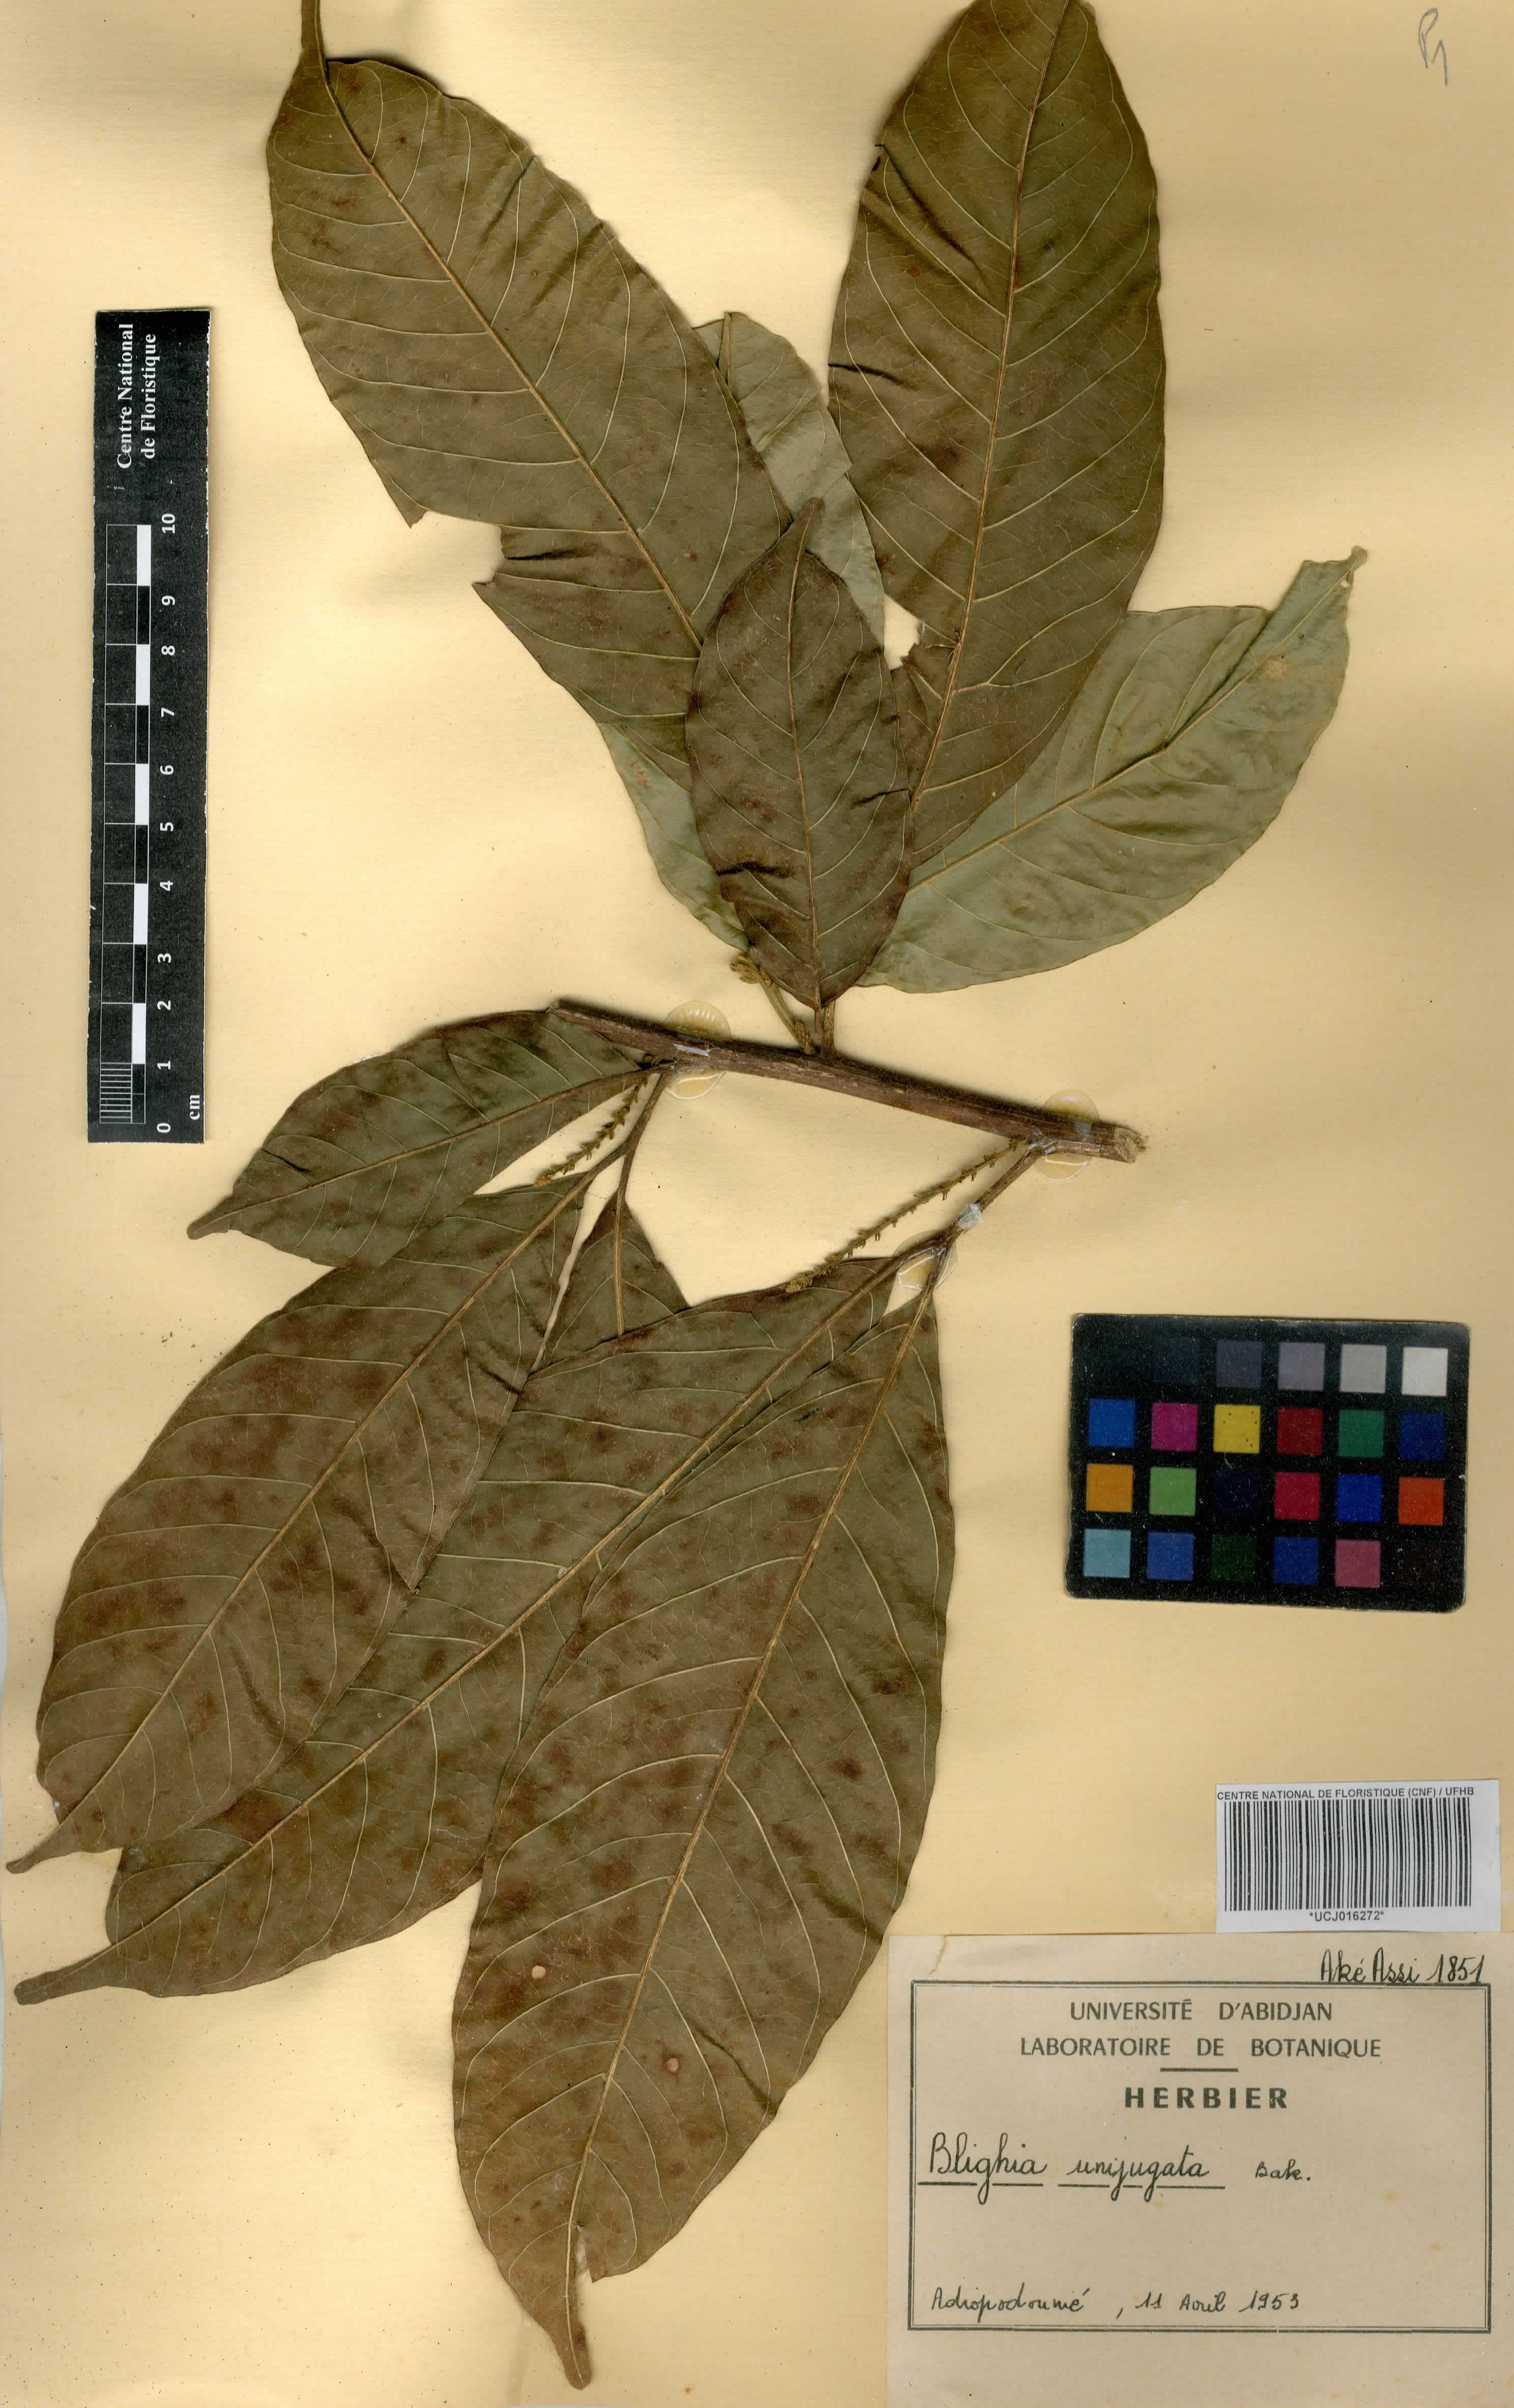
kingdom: Plantae
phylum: Tracheophyta
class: Magnoliopsida
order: Sapindales
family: Sapindaceae
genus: Blighia
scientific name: Blighia unijugata
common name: Triangle tops
